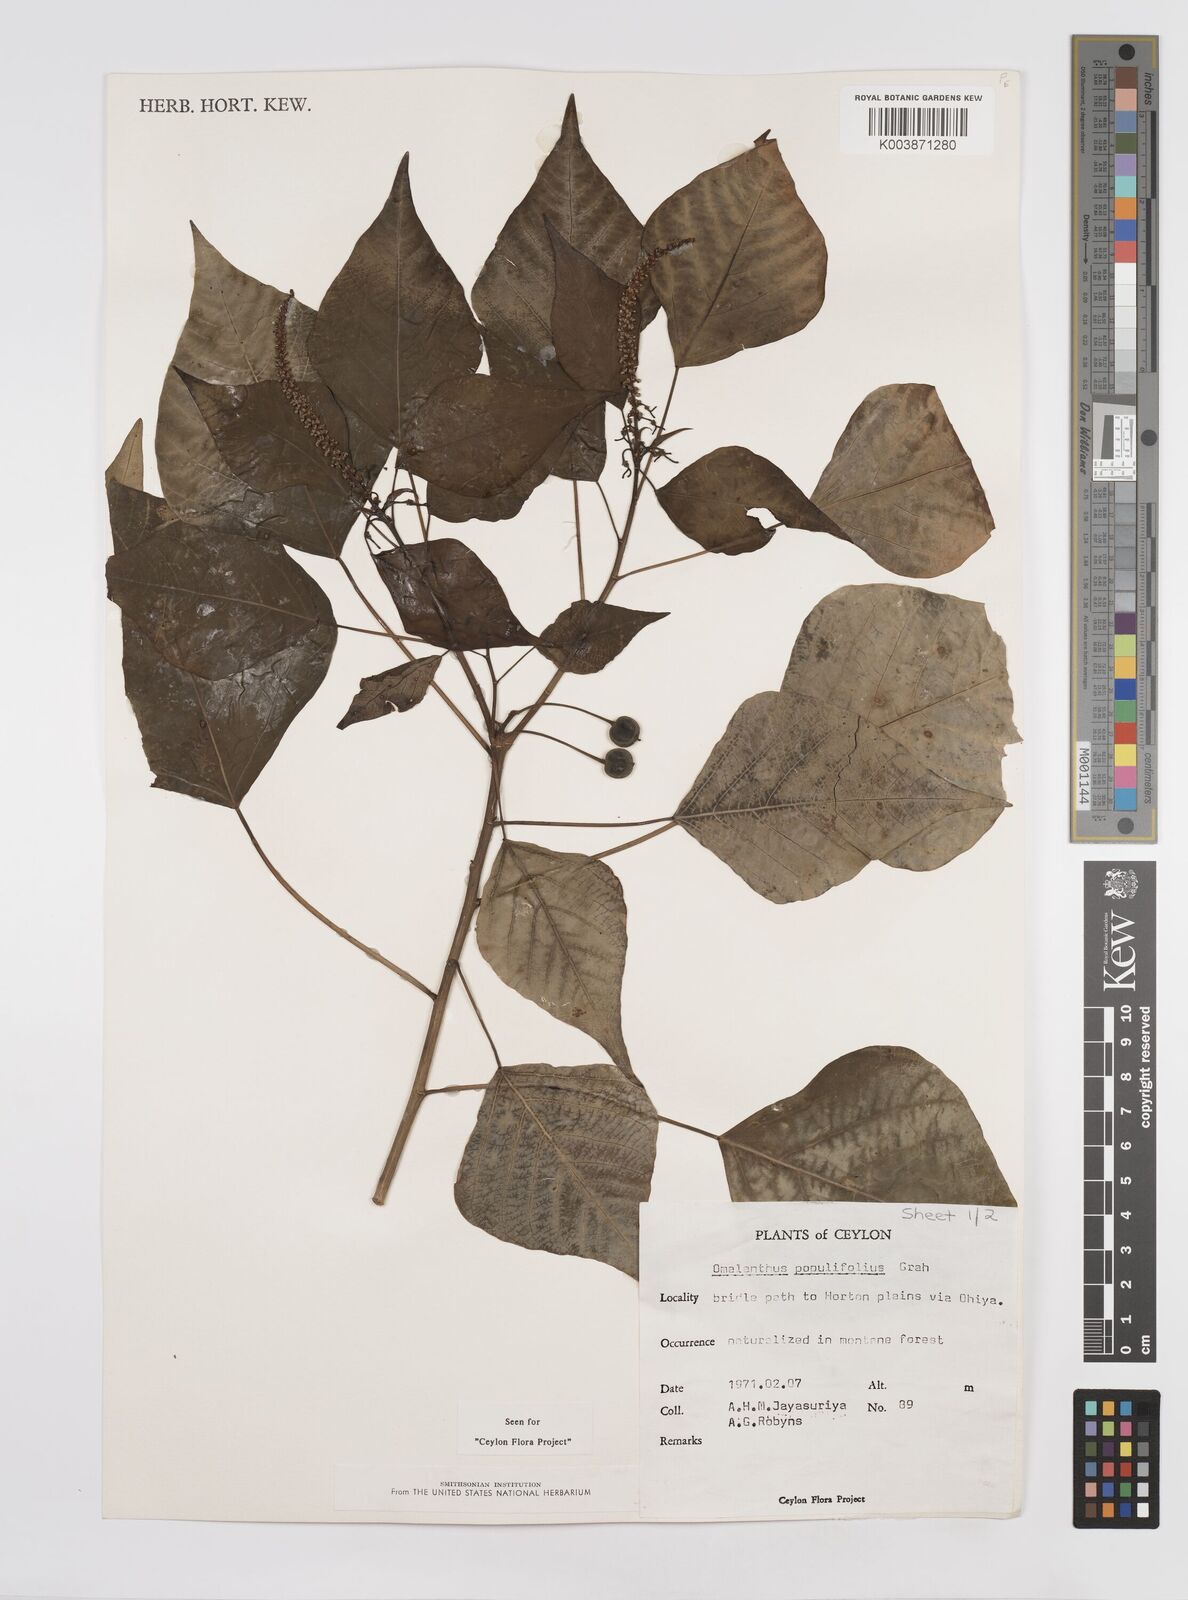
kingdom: Plantae
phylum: Tracheophyta
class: Magnoliopsida
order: Malpighiales
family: Euphorbiaceae
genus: Homalanthus
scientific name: Homalanthus populneus
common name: Spurge
